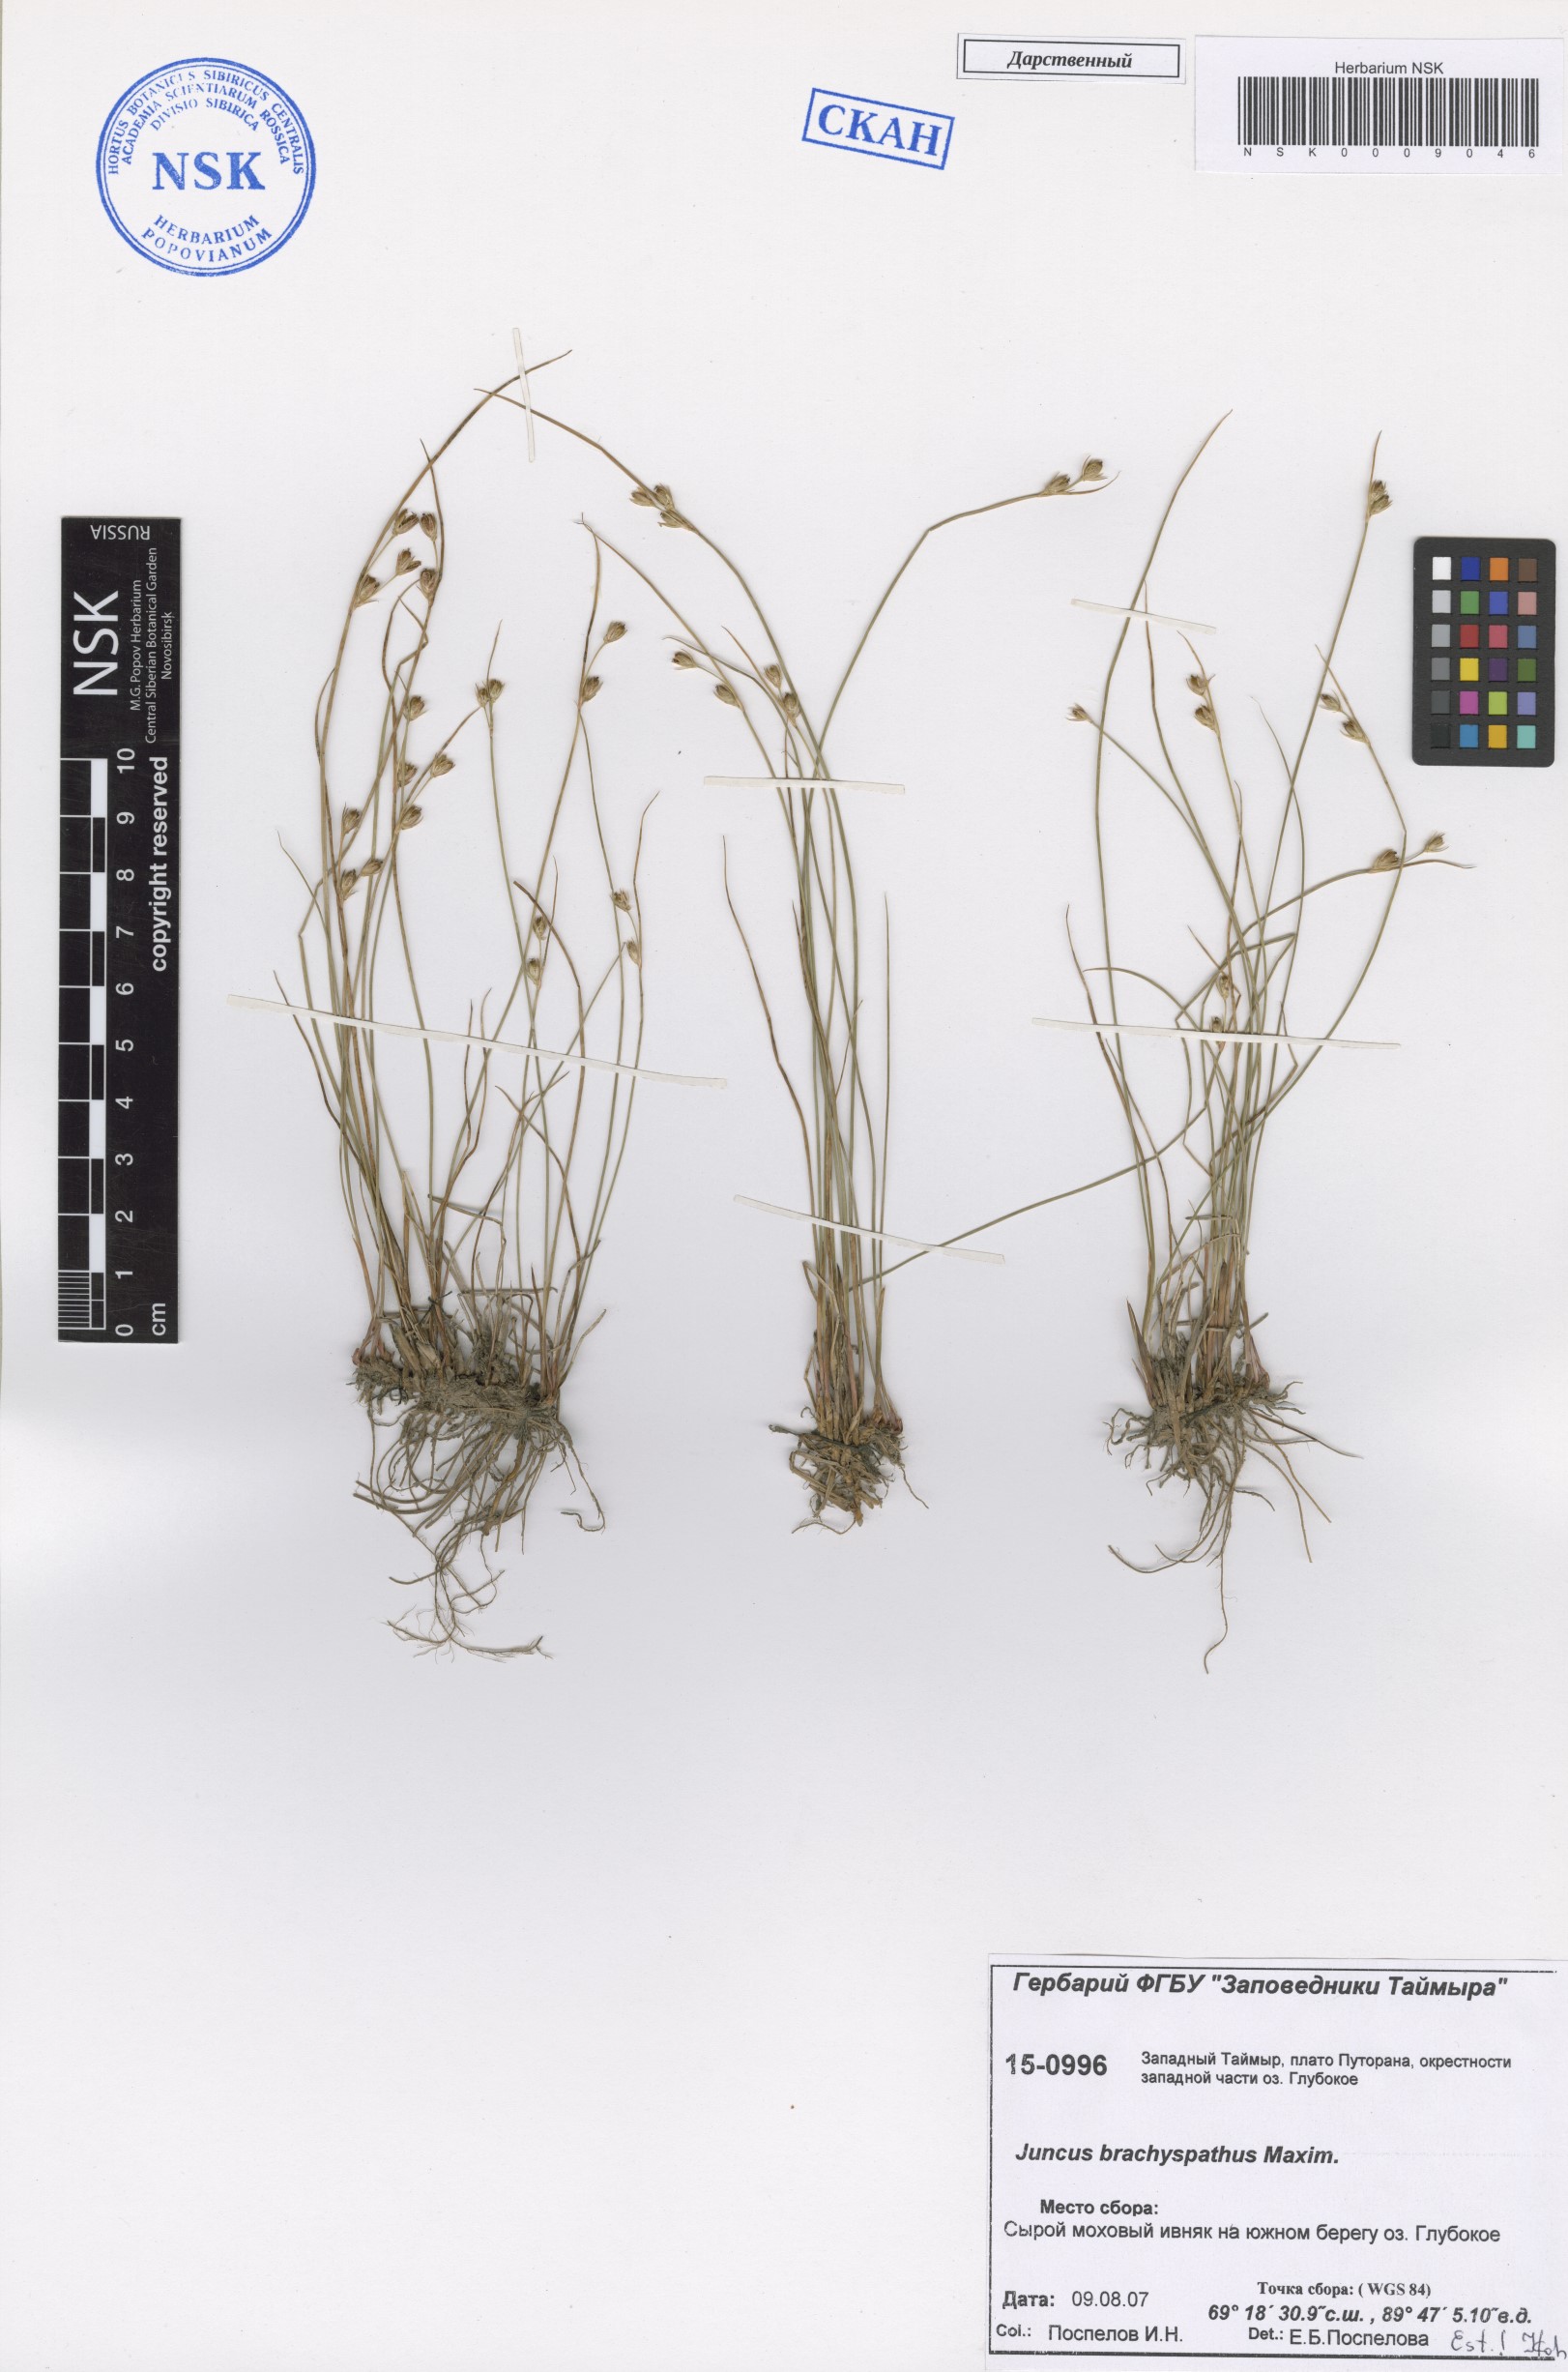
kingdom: Plantae
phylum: Tracheophyta
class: Liliopsida
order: Poales
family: Juncaceae
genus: Juncus
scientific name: Juncus brachyspathus
